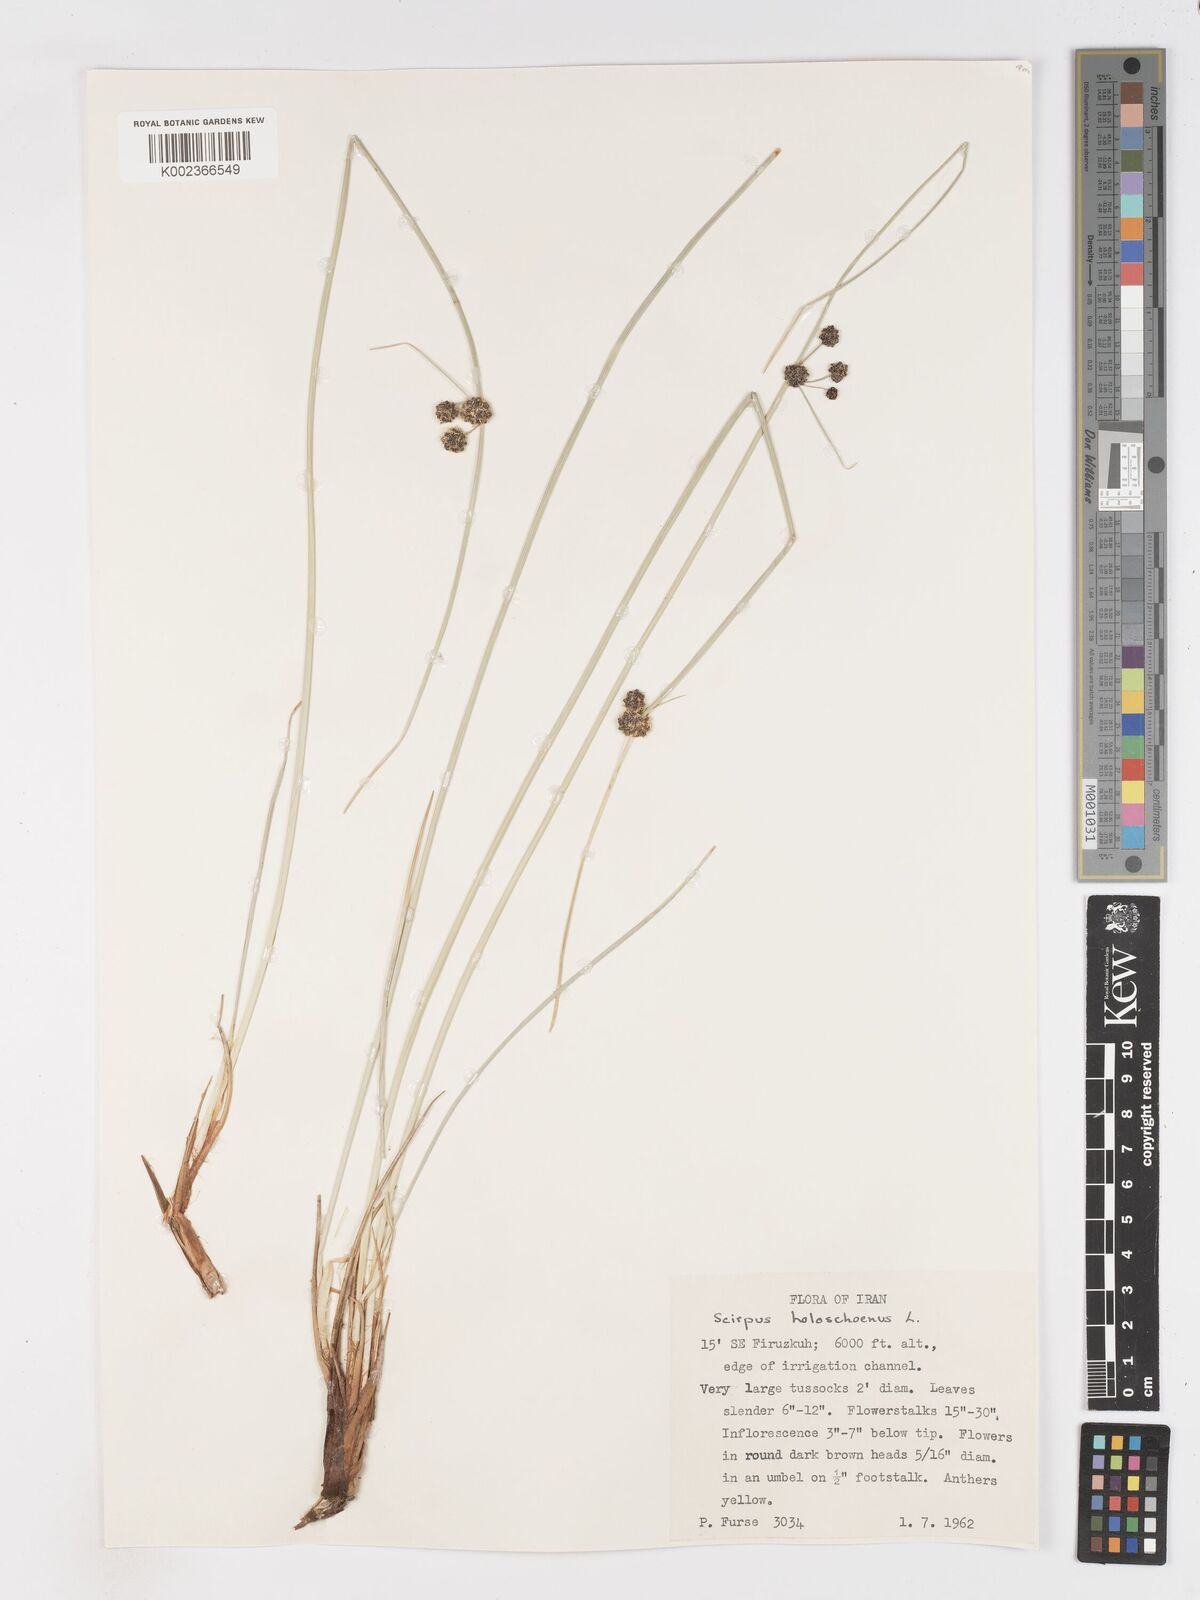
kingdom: Plantae
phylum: Tracheophyta
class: Liliopsida
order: Poales
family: Cyperaceae
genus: Scirpoides
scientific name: Scirpoides holoschoenus
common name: Round-headed club-rush
